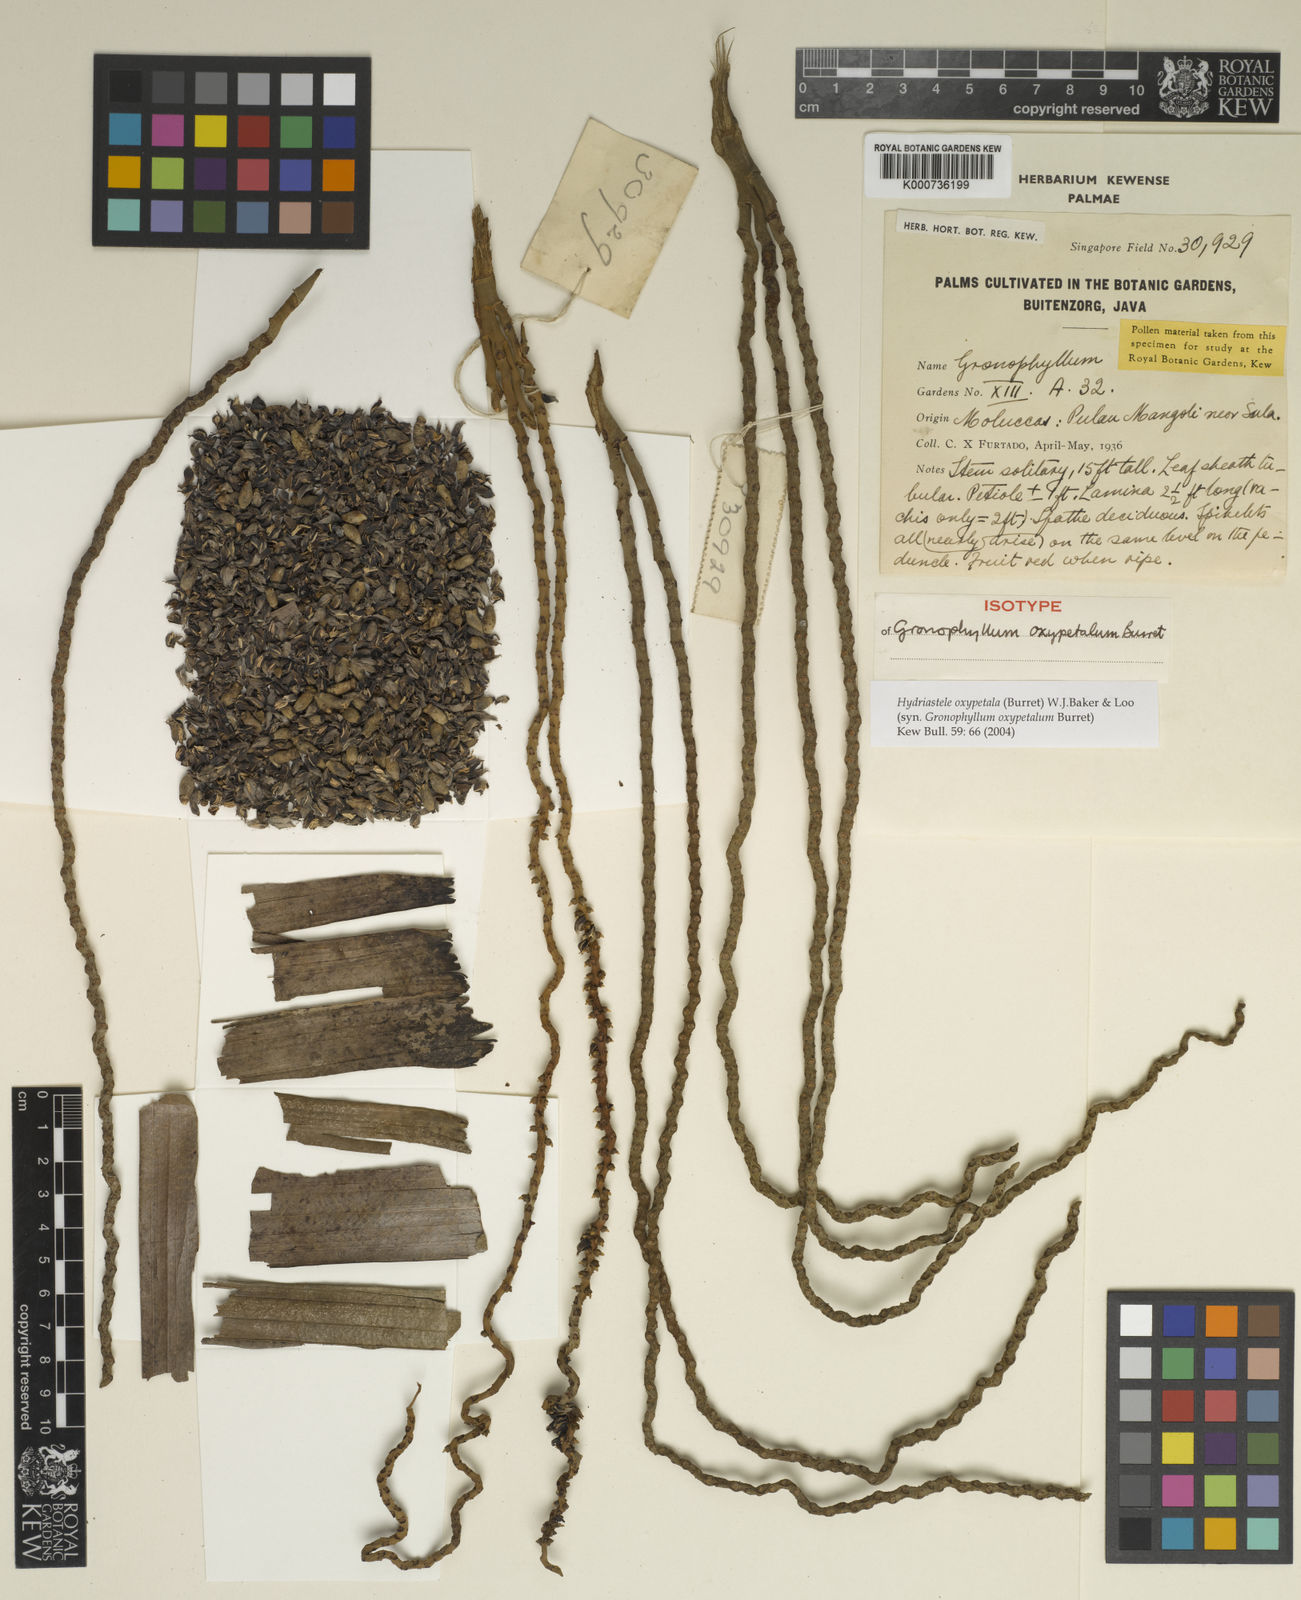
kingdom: Plantae
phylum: Tracheophyta
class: Liliopsida
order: Arecales
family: Arecaceae
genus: Hydriastele
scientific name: Hydriastele oxypetala
